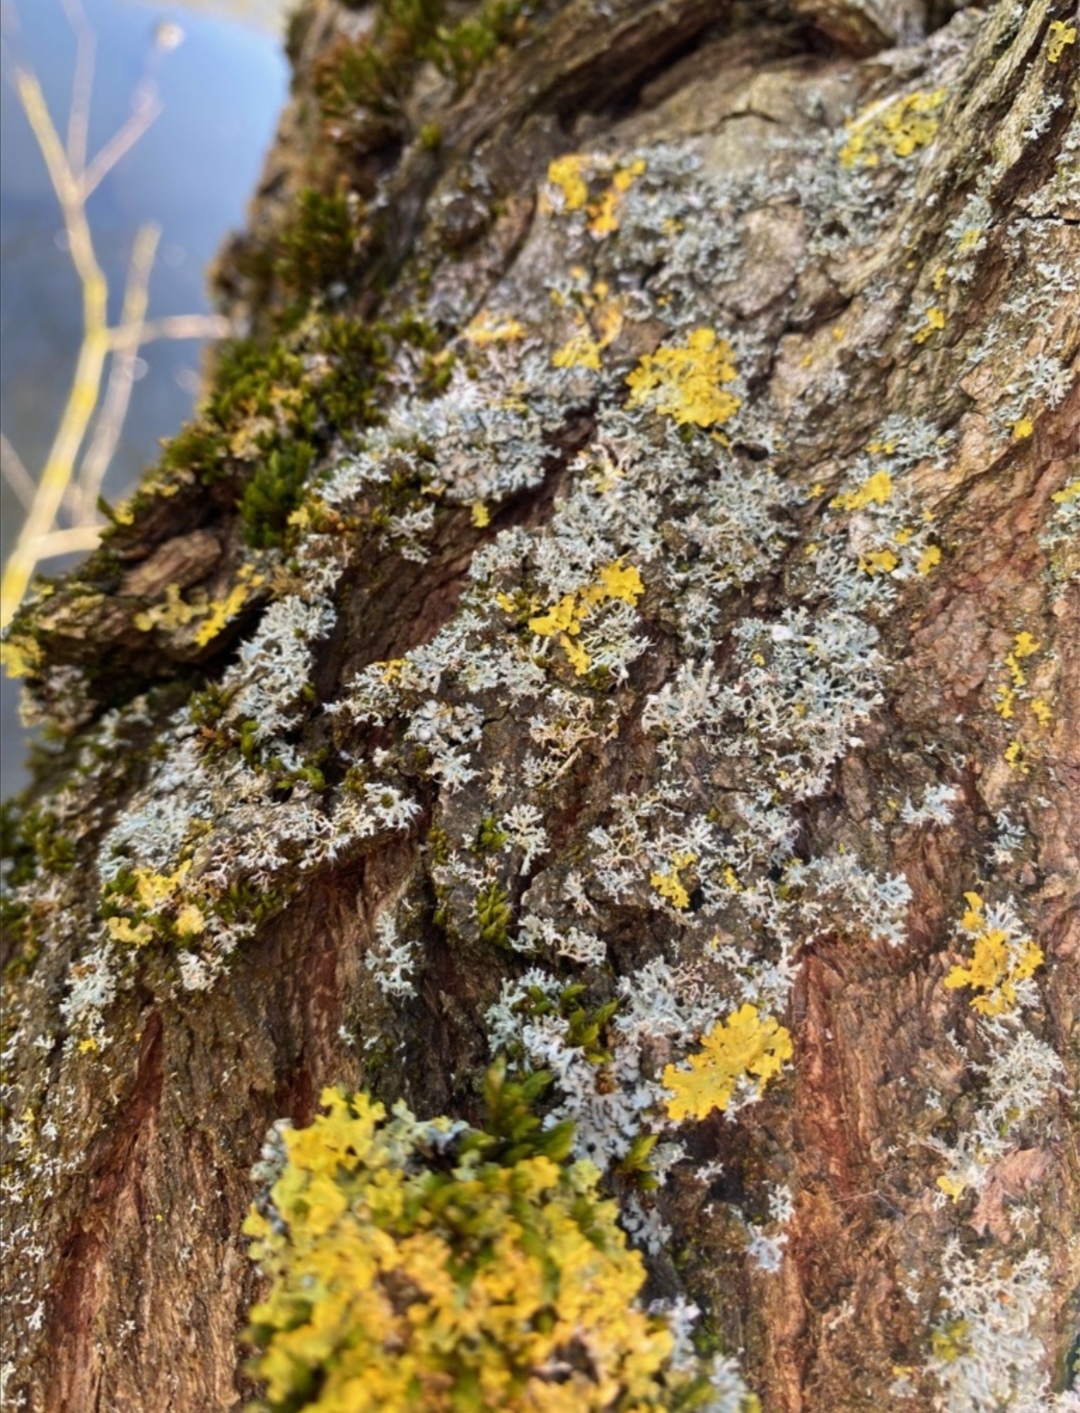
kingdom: Fungi
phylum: Ascomycota
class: Lecanoromycetes
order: Teloschistales
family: Teloschistaceae
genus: Xanthoria
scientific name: Xanthoria parietina
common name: Almindelig væggelav
